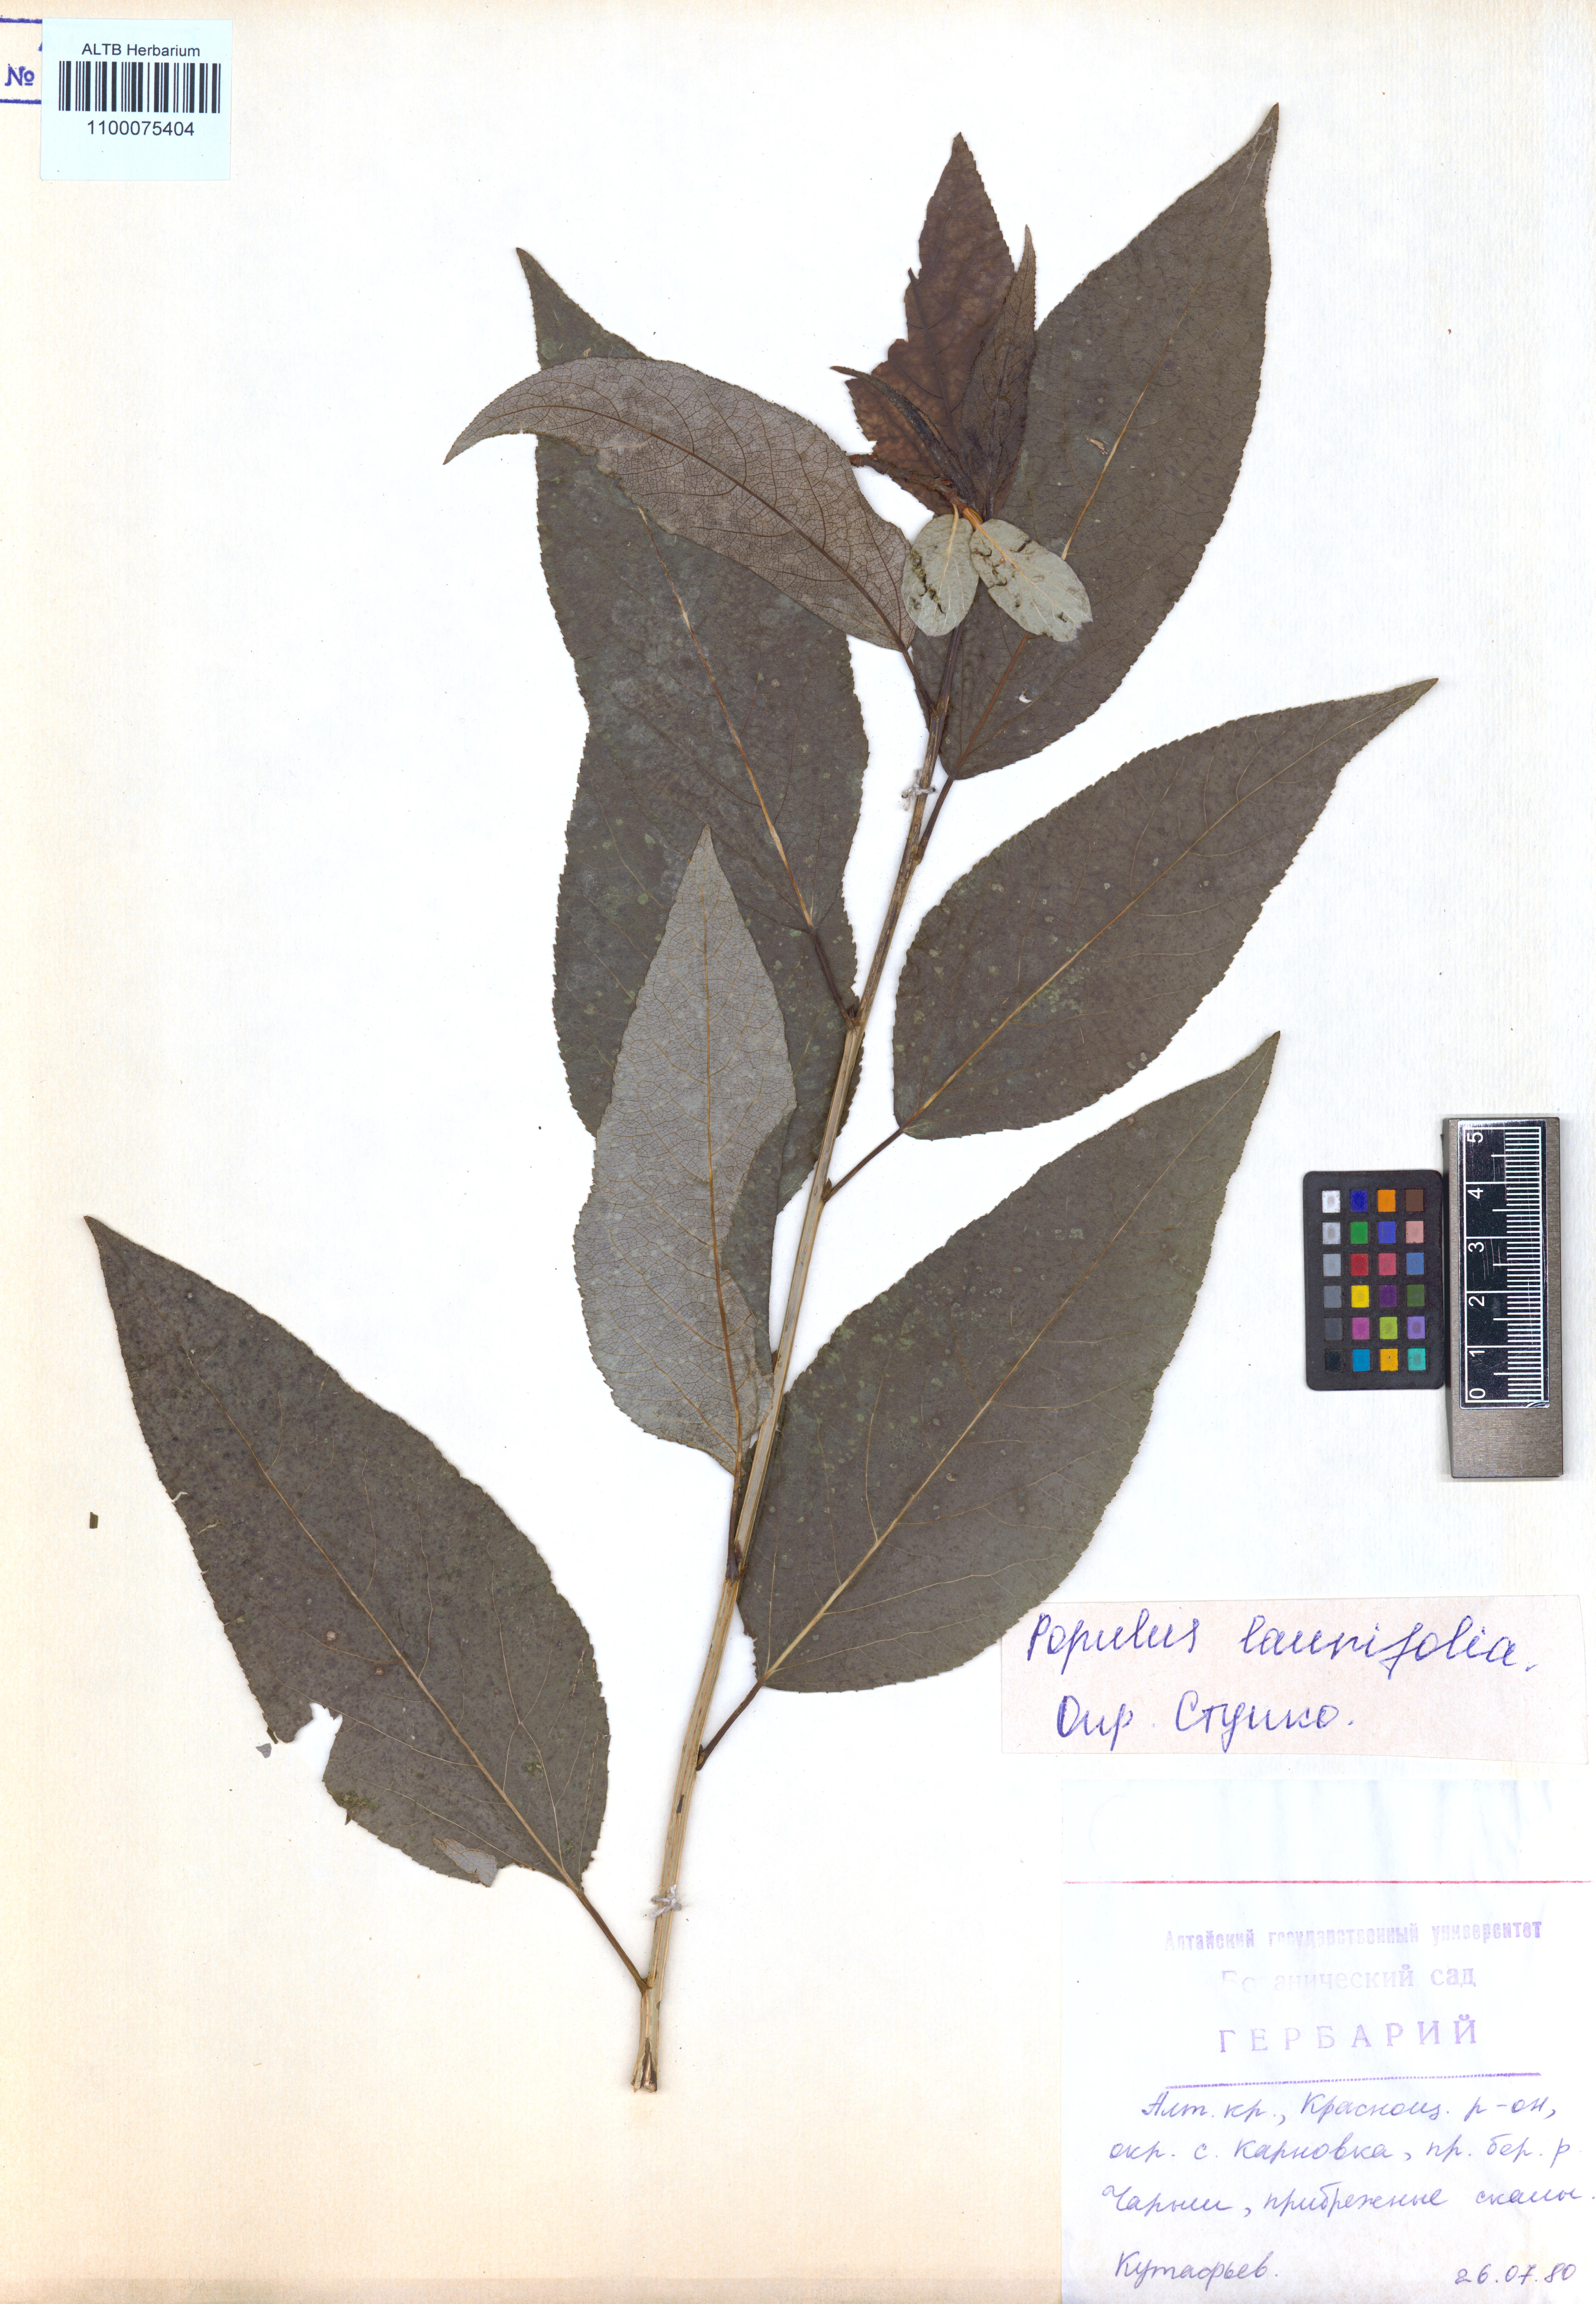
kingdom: Plantae
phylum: Tracheophyta
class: Magnoliopsida
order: Malpighiales
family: Salicaceae
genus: Populus
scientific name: Populus laurifolia
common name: Laurel-leaf poplar
